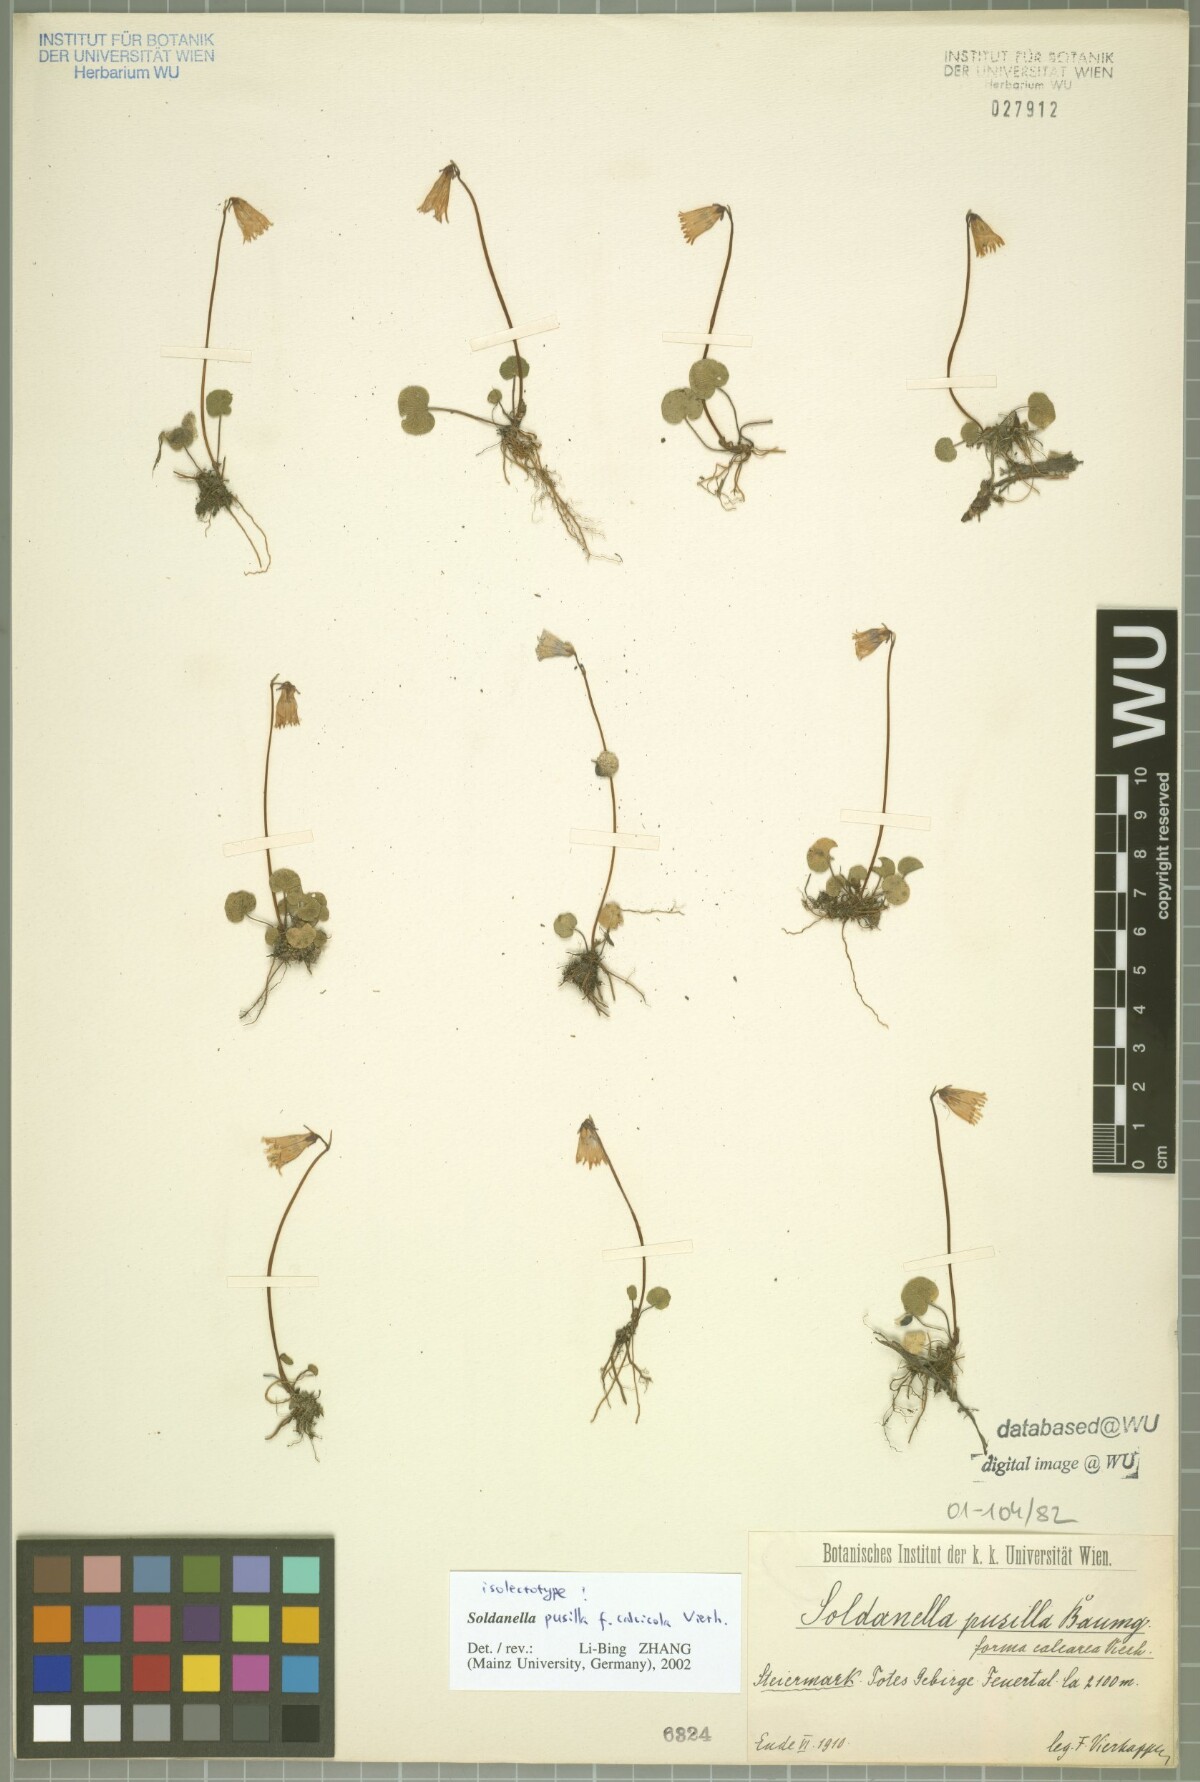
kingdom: Plantae
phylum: Tracheophyta
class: Magnoliopsida
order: Ericales
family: Primulaceae
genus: Soldanella
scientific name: Soldanella alpicola
